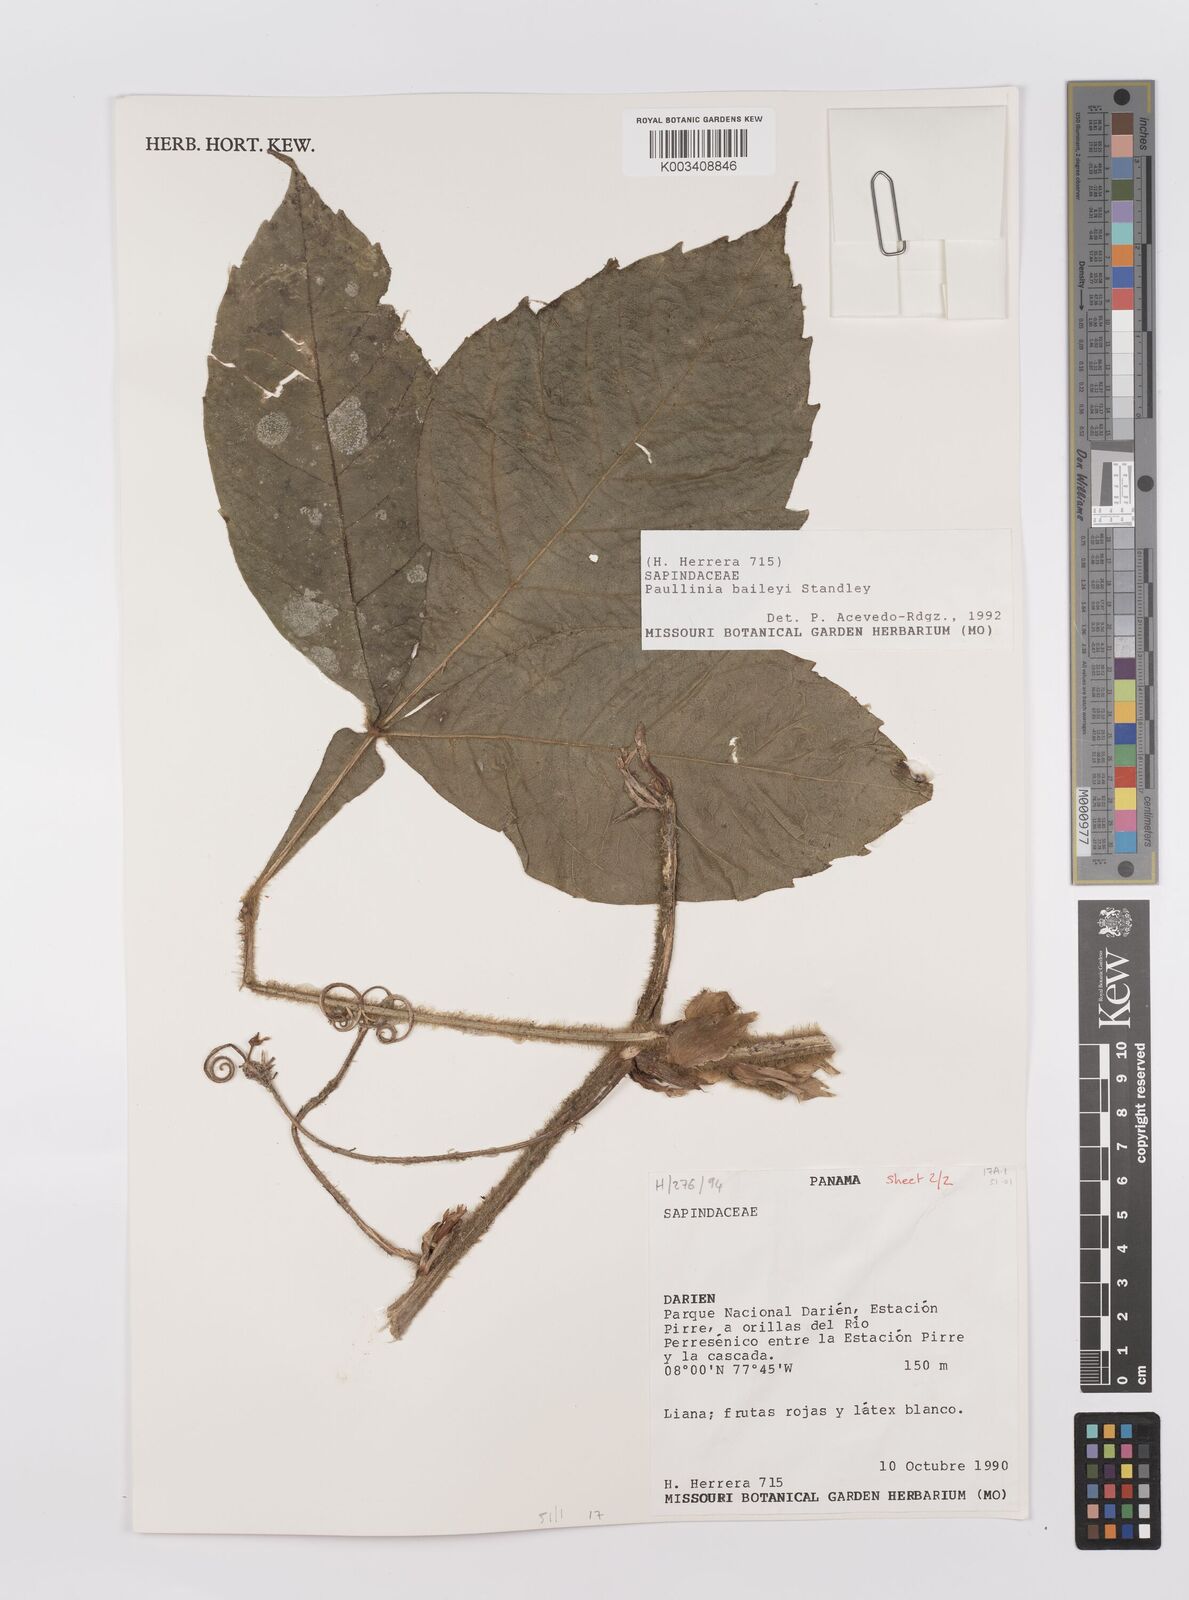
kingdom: Plantae
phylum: Tracheophyta
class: Magnoliopsida
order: Sapindales
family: Sapindaceae
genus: Paullinia
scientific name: Paullinia baileyi
